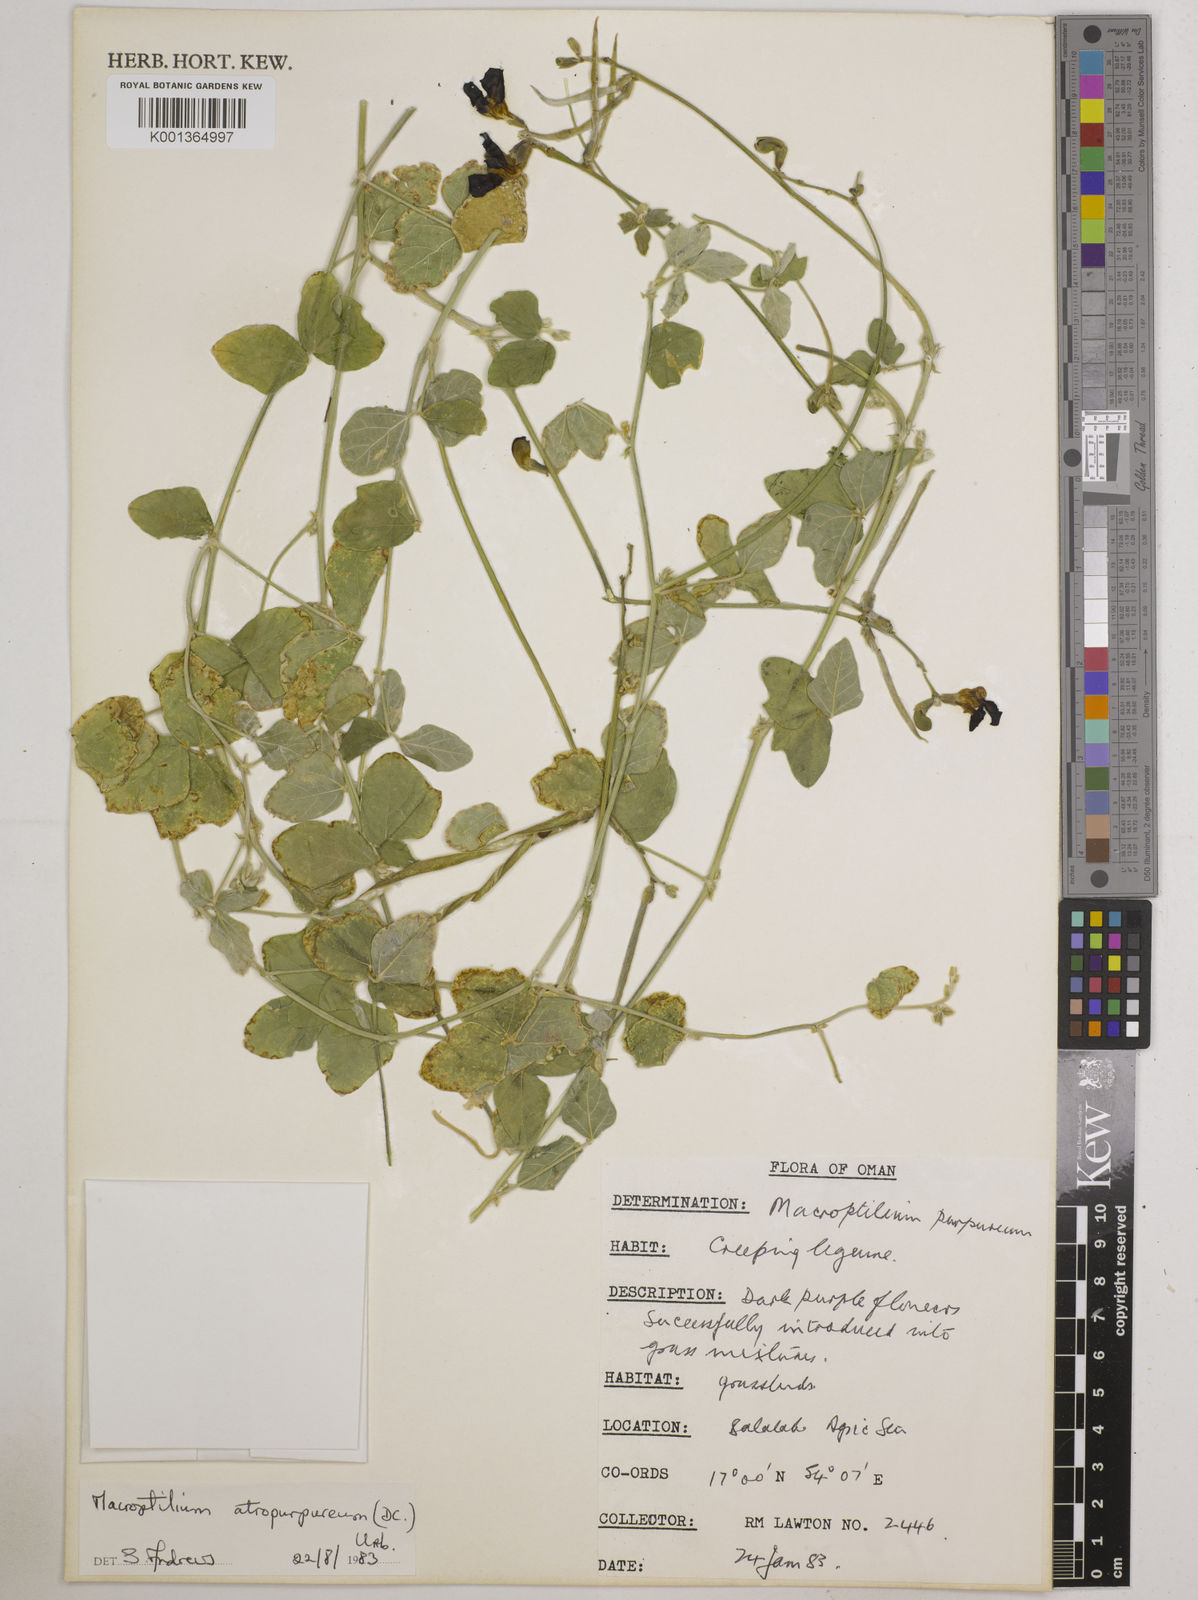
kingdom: Plantae
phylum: Tracheophyta
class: Magnoliopsida
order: Fabales
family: Fabaceae
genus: Macroptilium
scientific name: Macroptilium atropurpureum
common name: Purple bushbean
